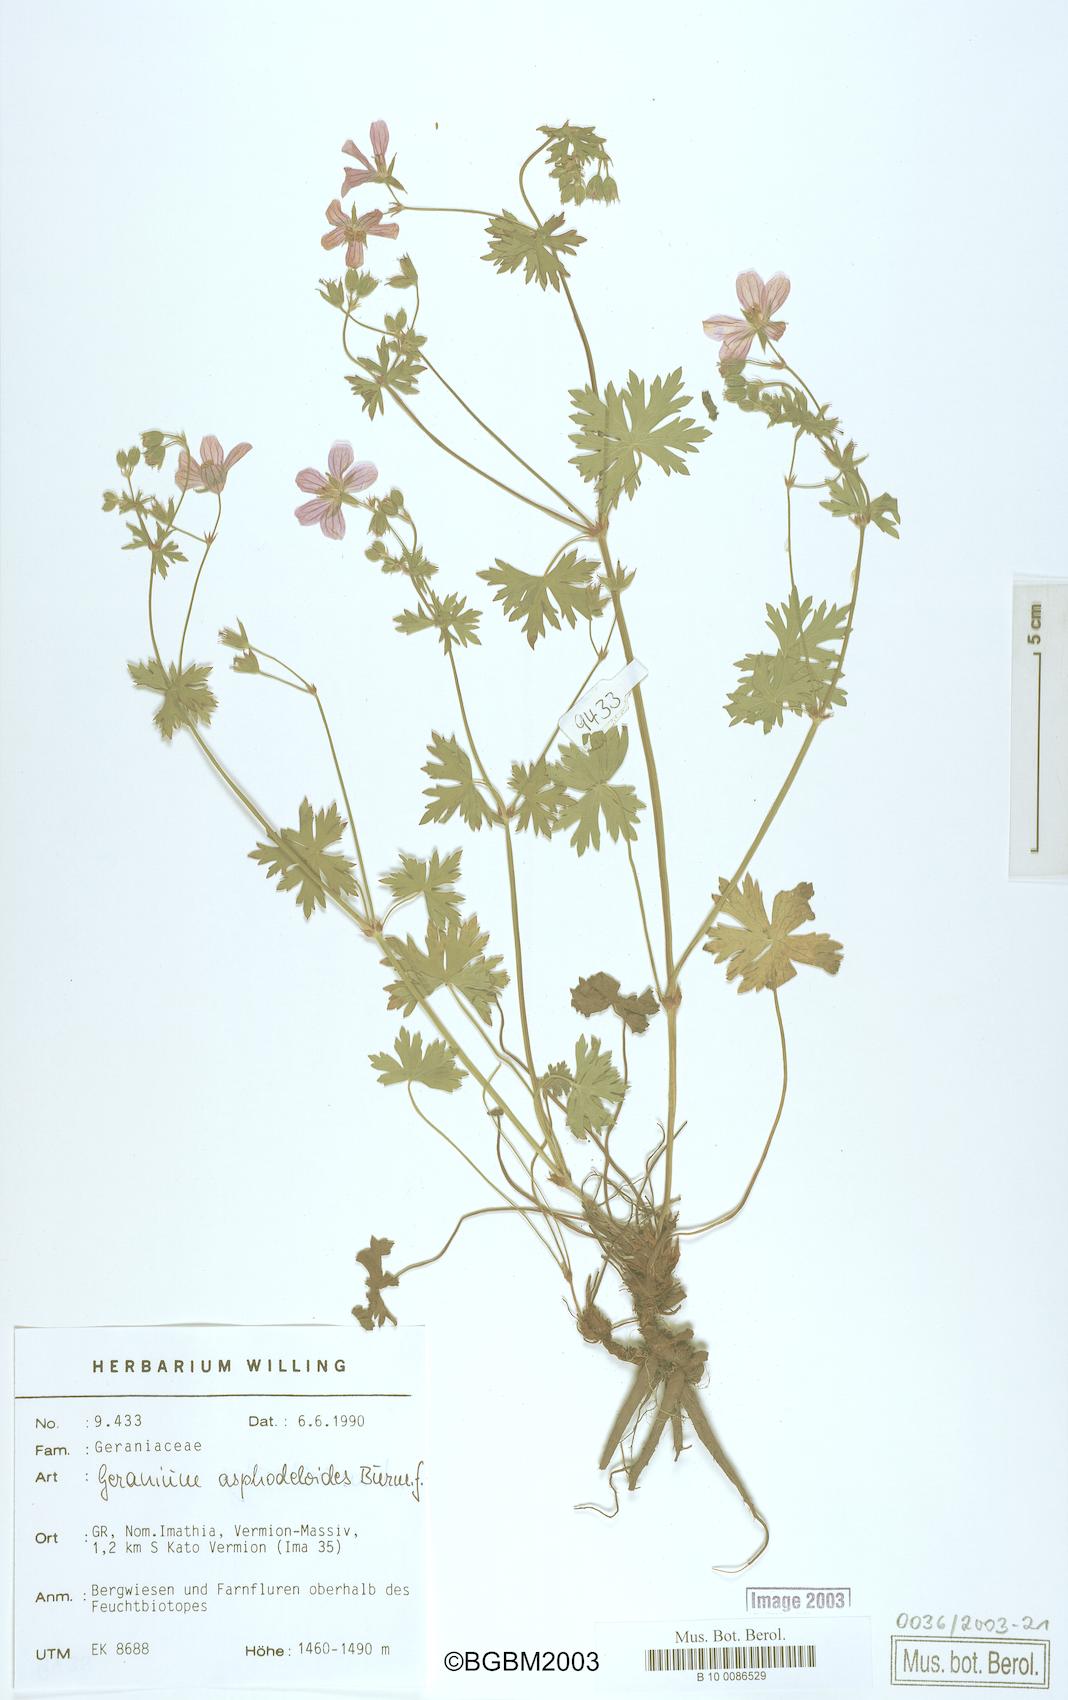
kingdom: Plantae
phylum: Tracheophyta
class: Magnoliopsida
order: Geraniales
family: Geraniaceae
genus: Geranium
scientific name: Geranium asphodeloides
